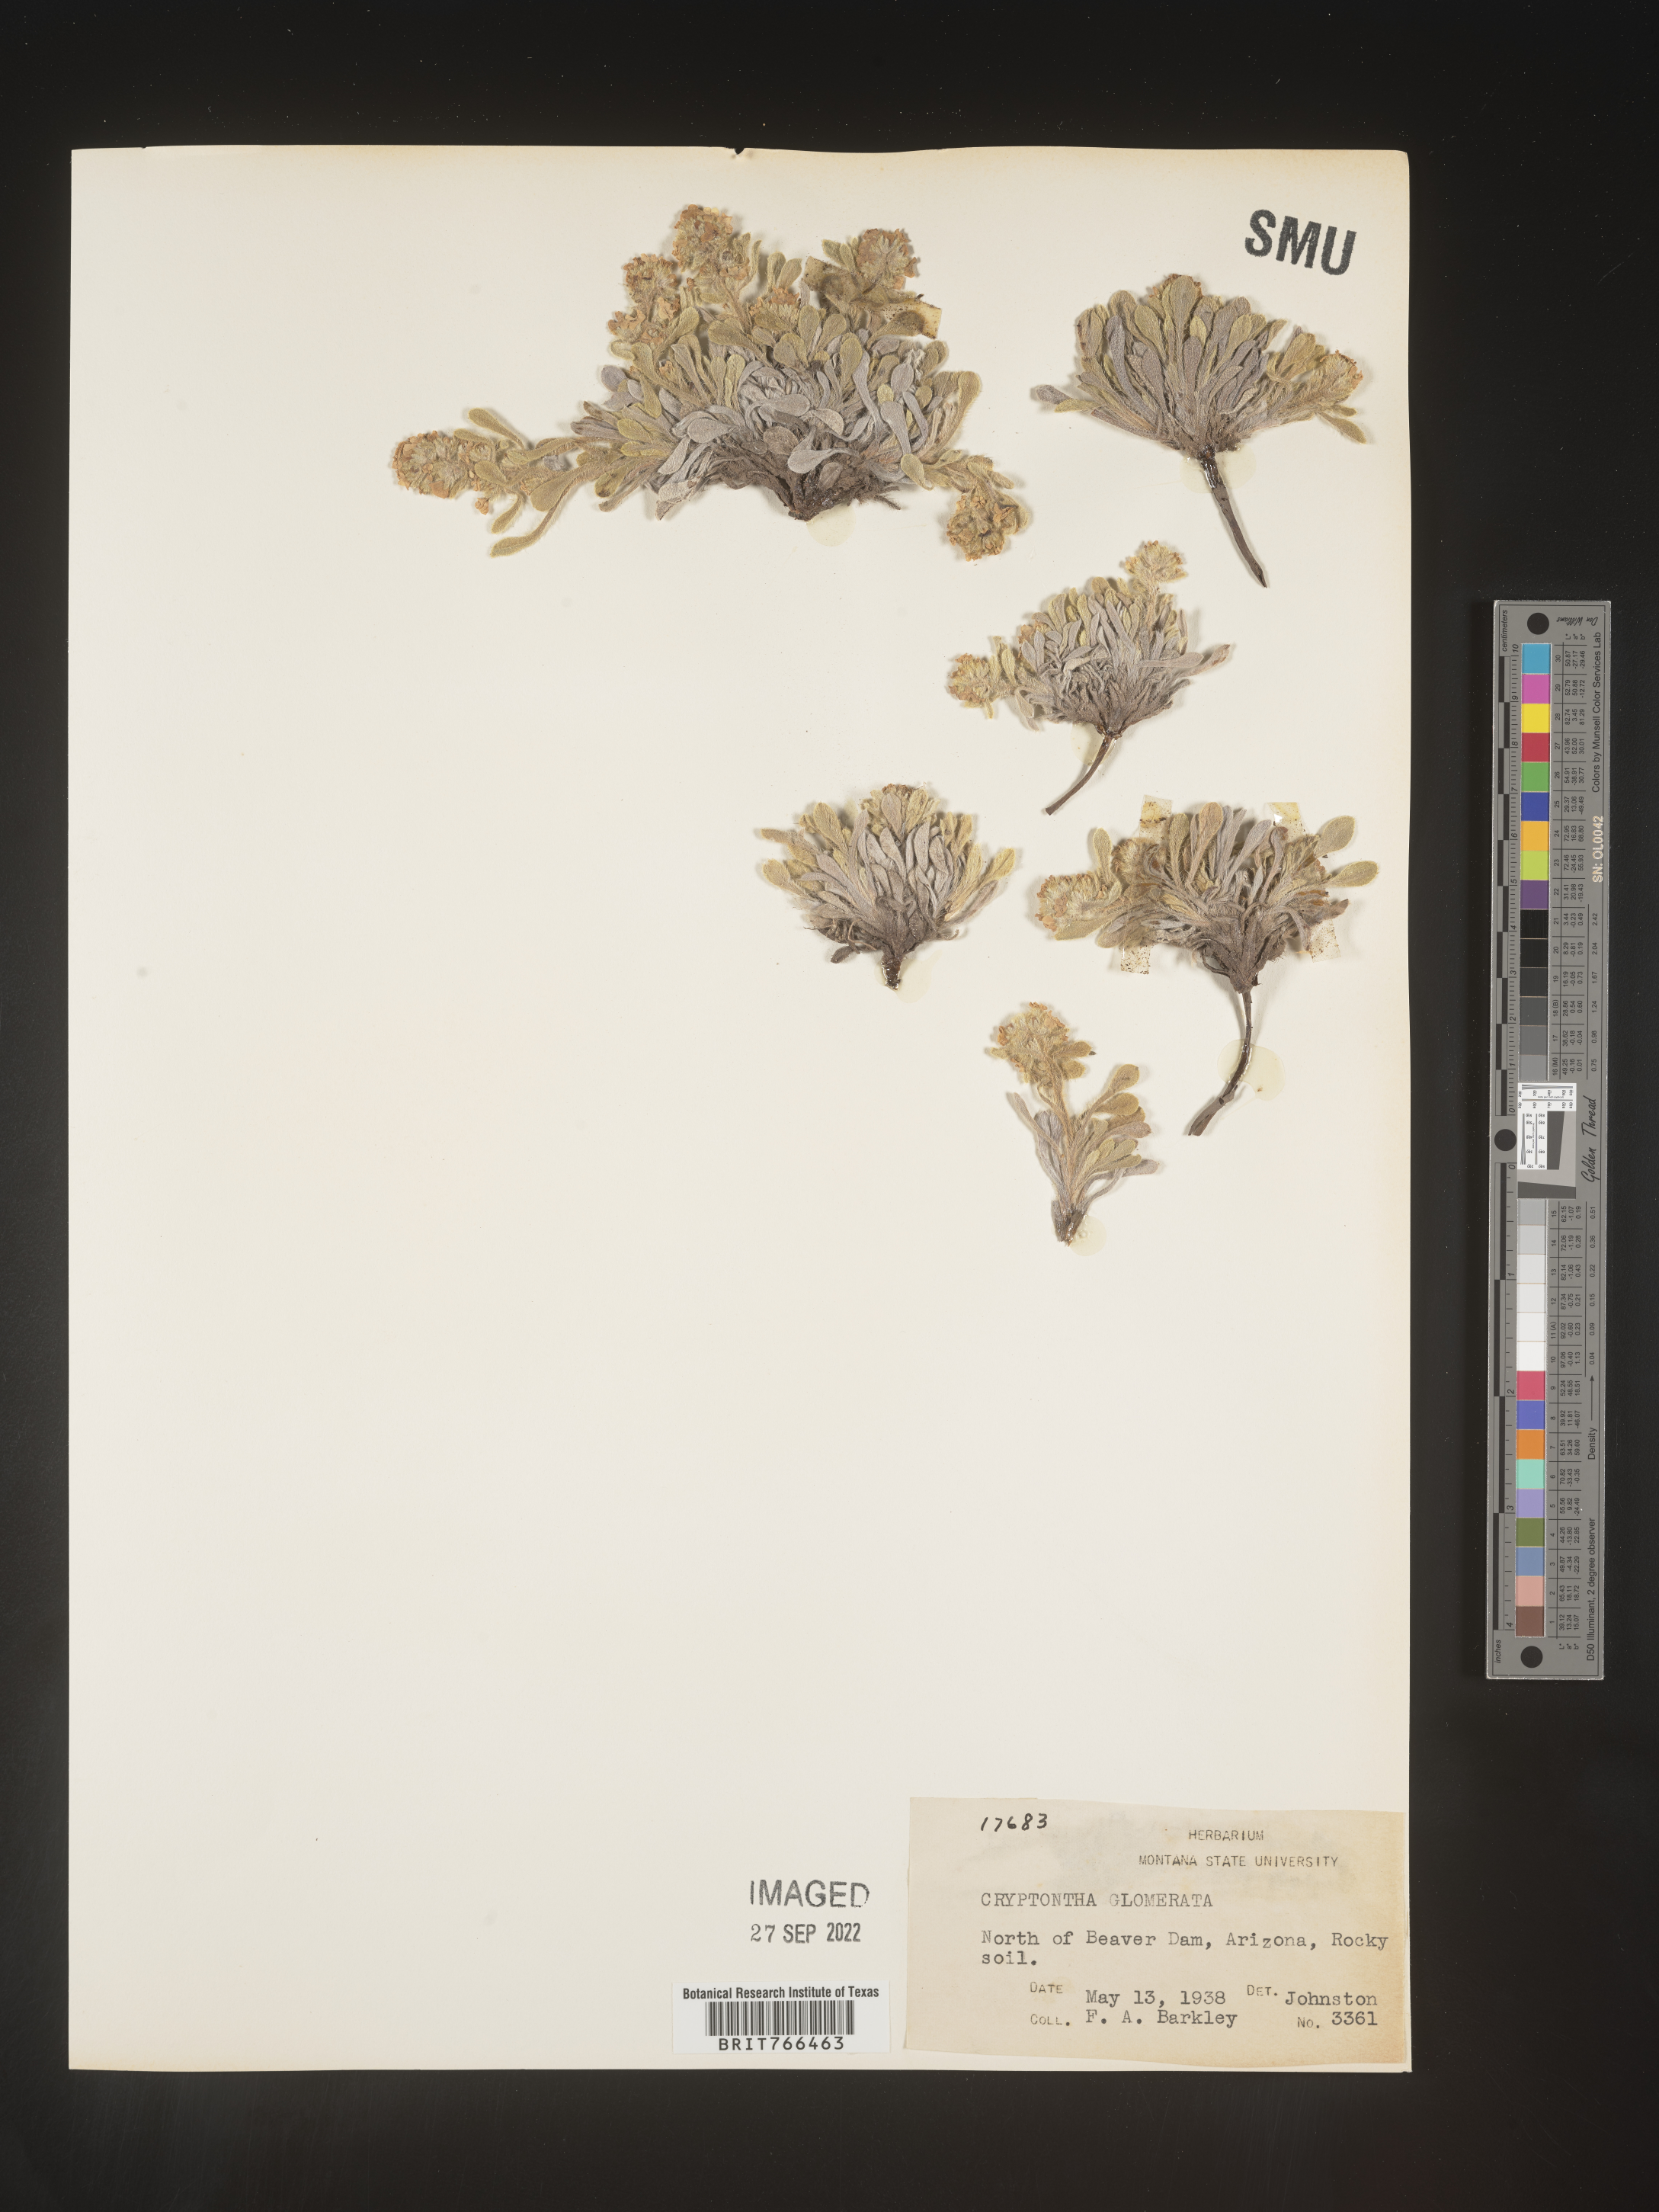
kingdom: Plantae
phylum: Tracheophyta
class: Magnoliopsida
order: Boraginales
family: Boraginaceae
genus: Cryptantha
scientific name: Cryptantha
